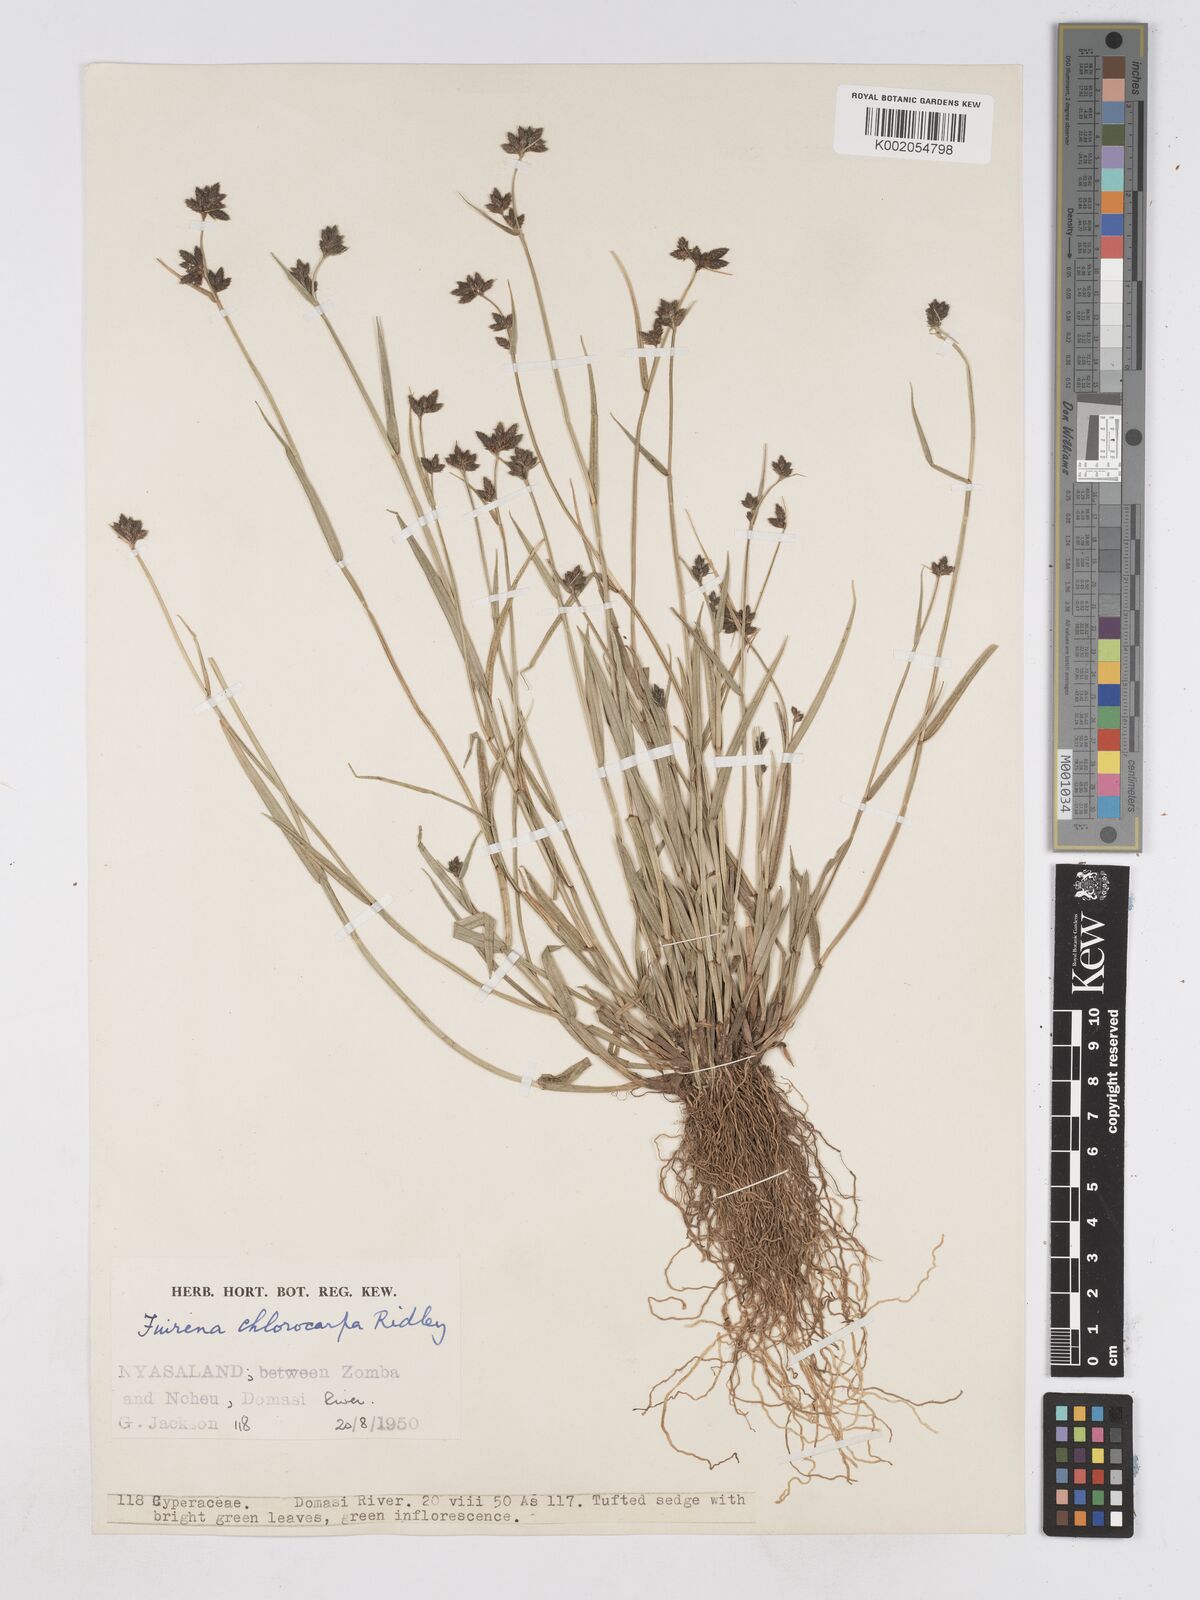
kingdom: Plantae
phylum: Tracheophyta
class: Liliopsida
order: Poales
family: Cyperaceae
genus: Fuirena
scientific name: Fuirena stricta
